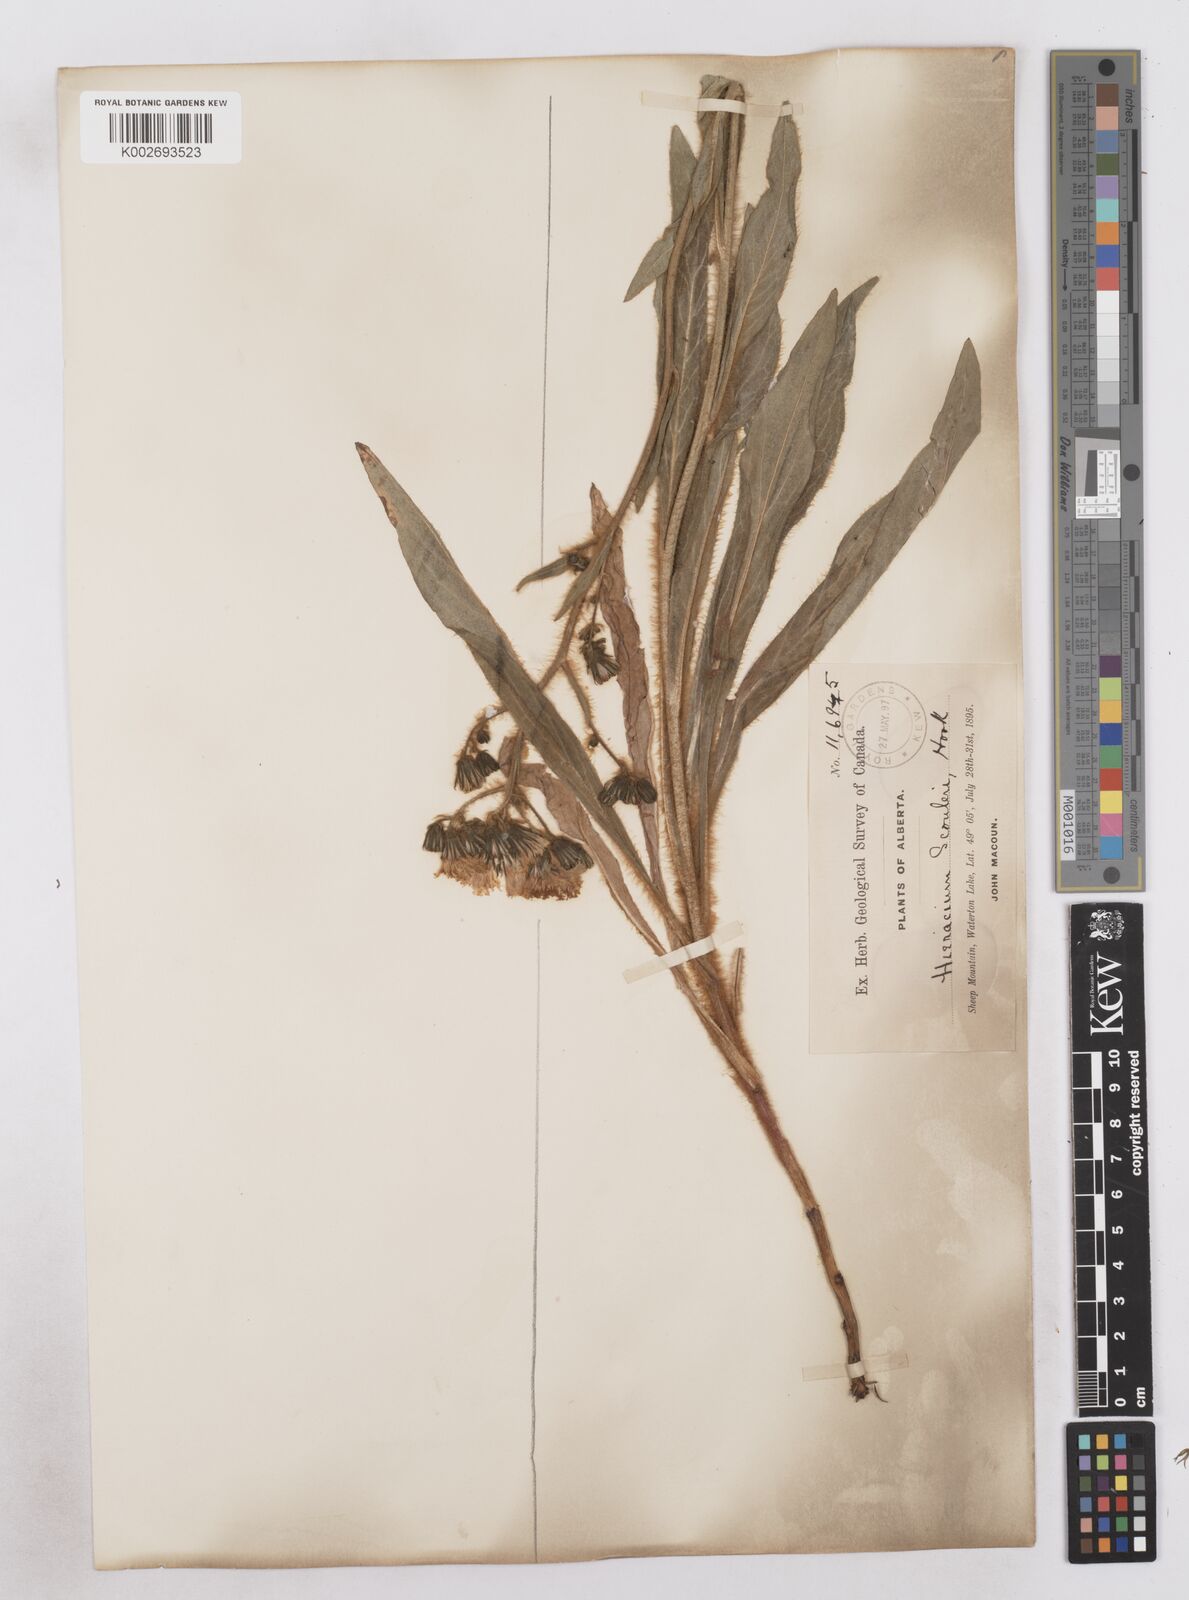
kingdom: Plantae
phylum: Tracheophyta
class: Magnoliopsida
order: Asterales
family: Asteraceae
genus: Hieracium
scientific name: Hieracium scouleri
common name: Hound's-tongue hawkweed
